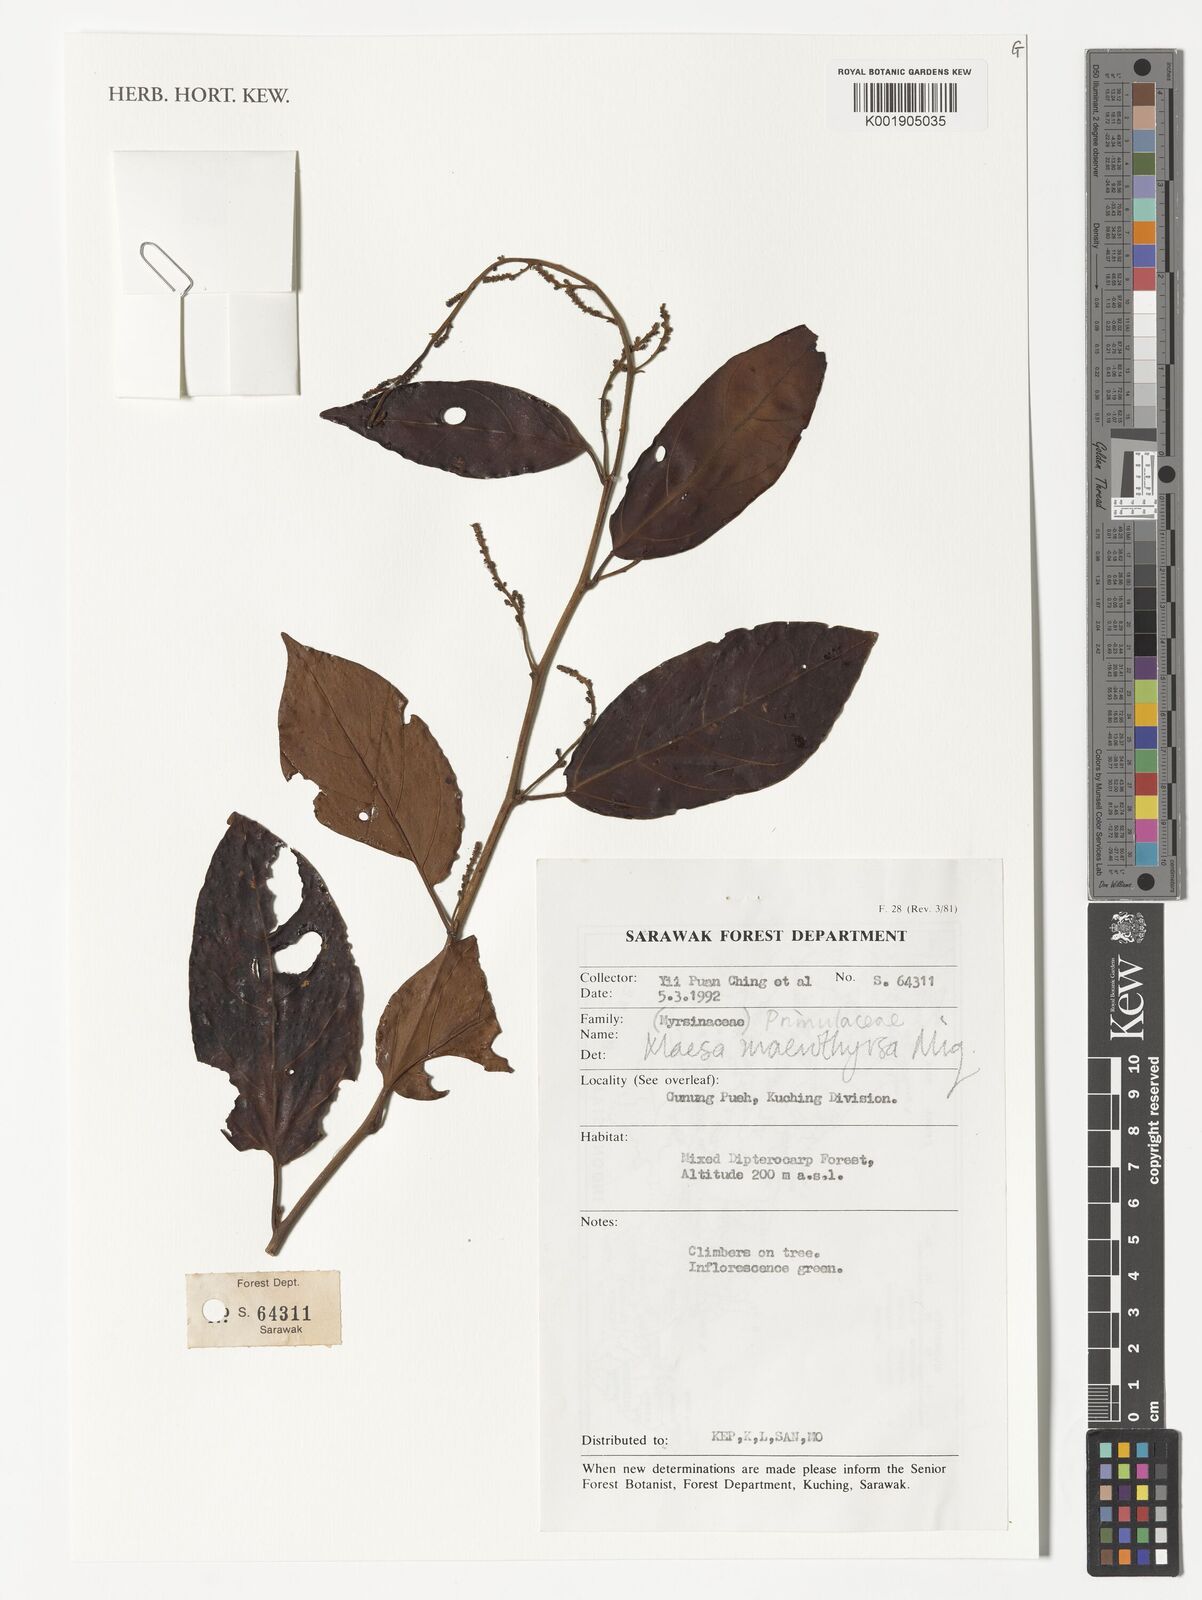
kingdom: Plantae
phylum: Tracheophyta
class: Magnoliopsida
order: Ericales
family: Primulaceae
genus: Maesa
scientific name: Maesa macrothyrsa
